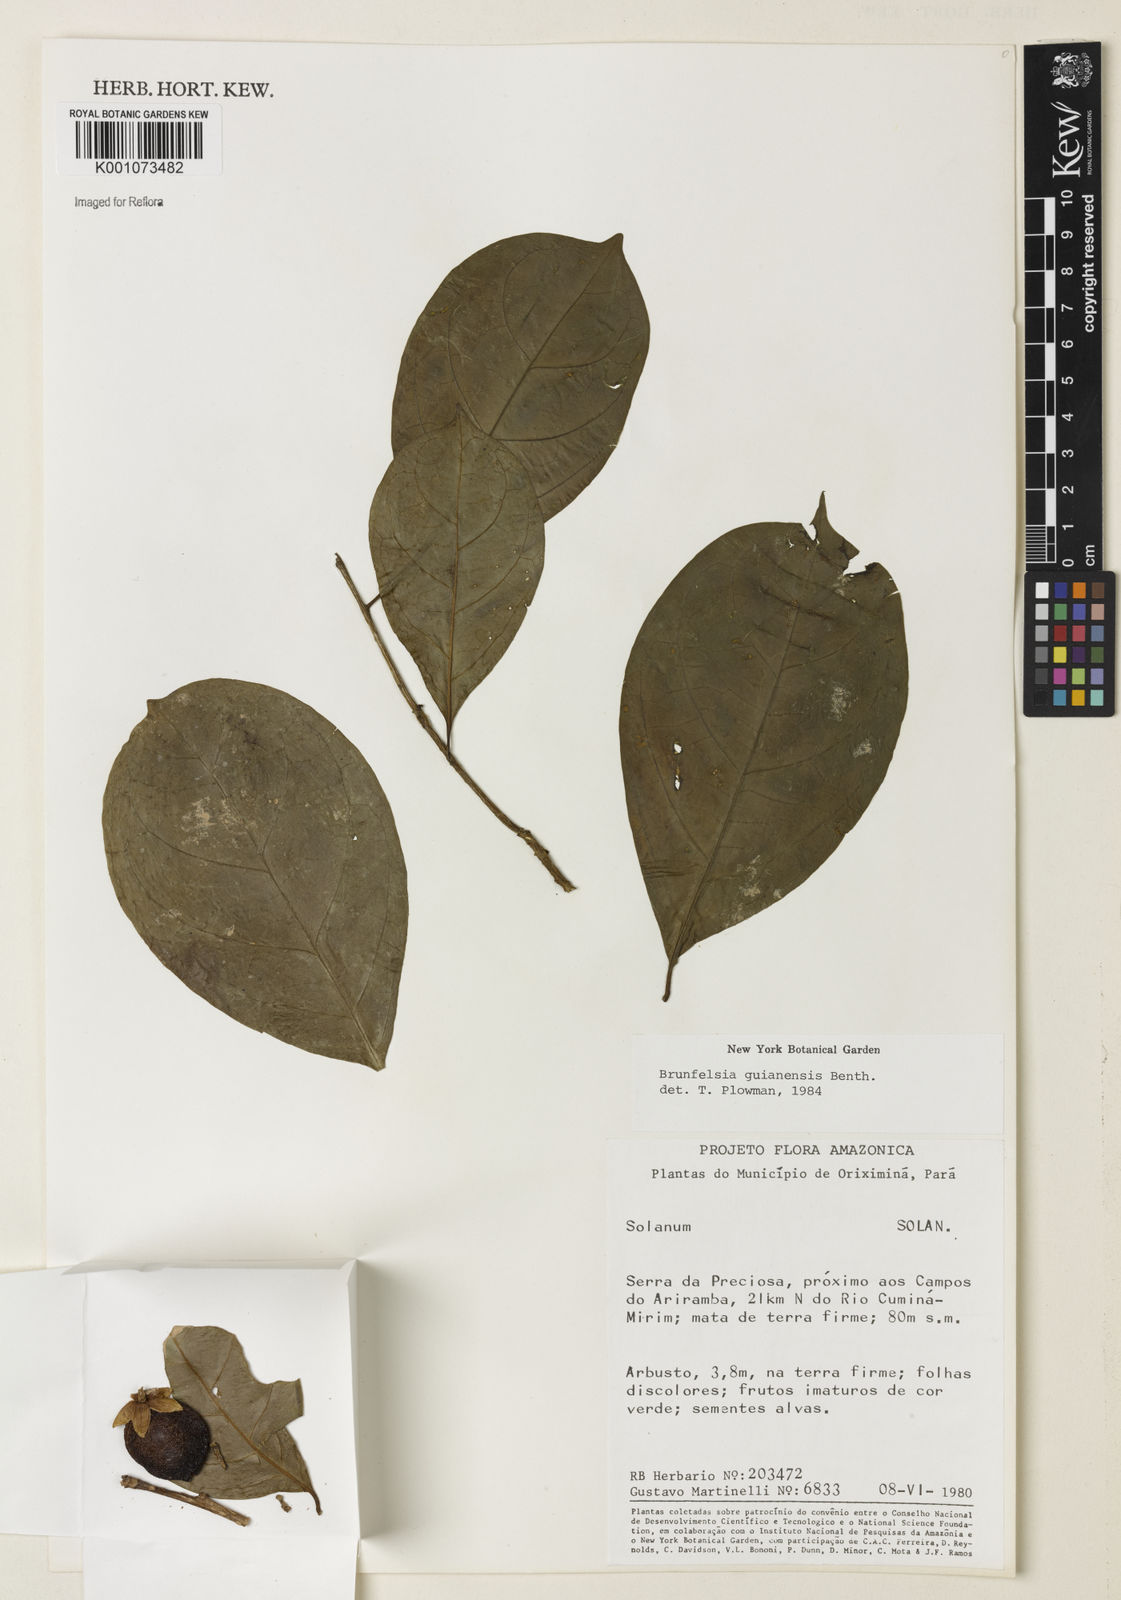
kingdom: Plantae
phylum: Tracheophyta
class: Magnoliopsida
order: Solanales
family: Solanaceae
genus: Brunfelsia
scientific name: Brunfelsia guianensis
